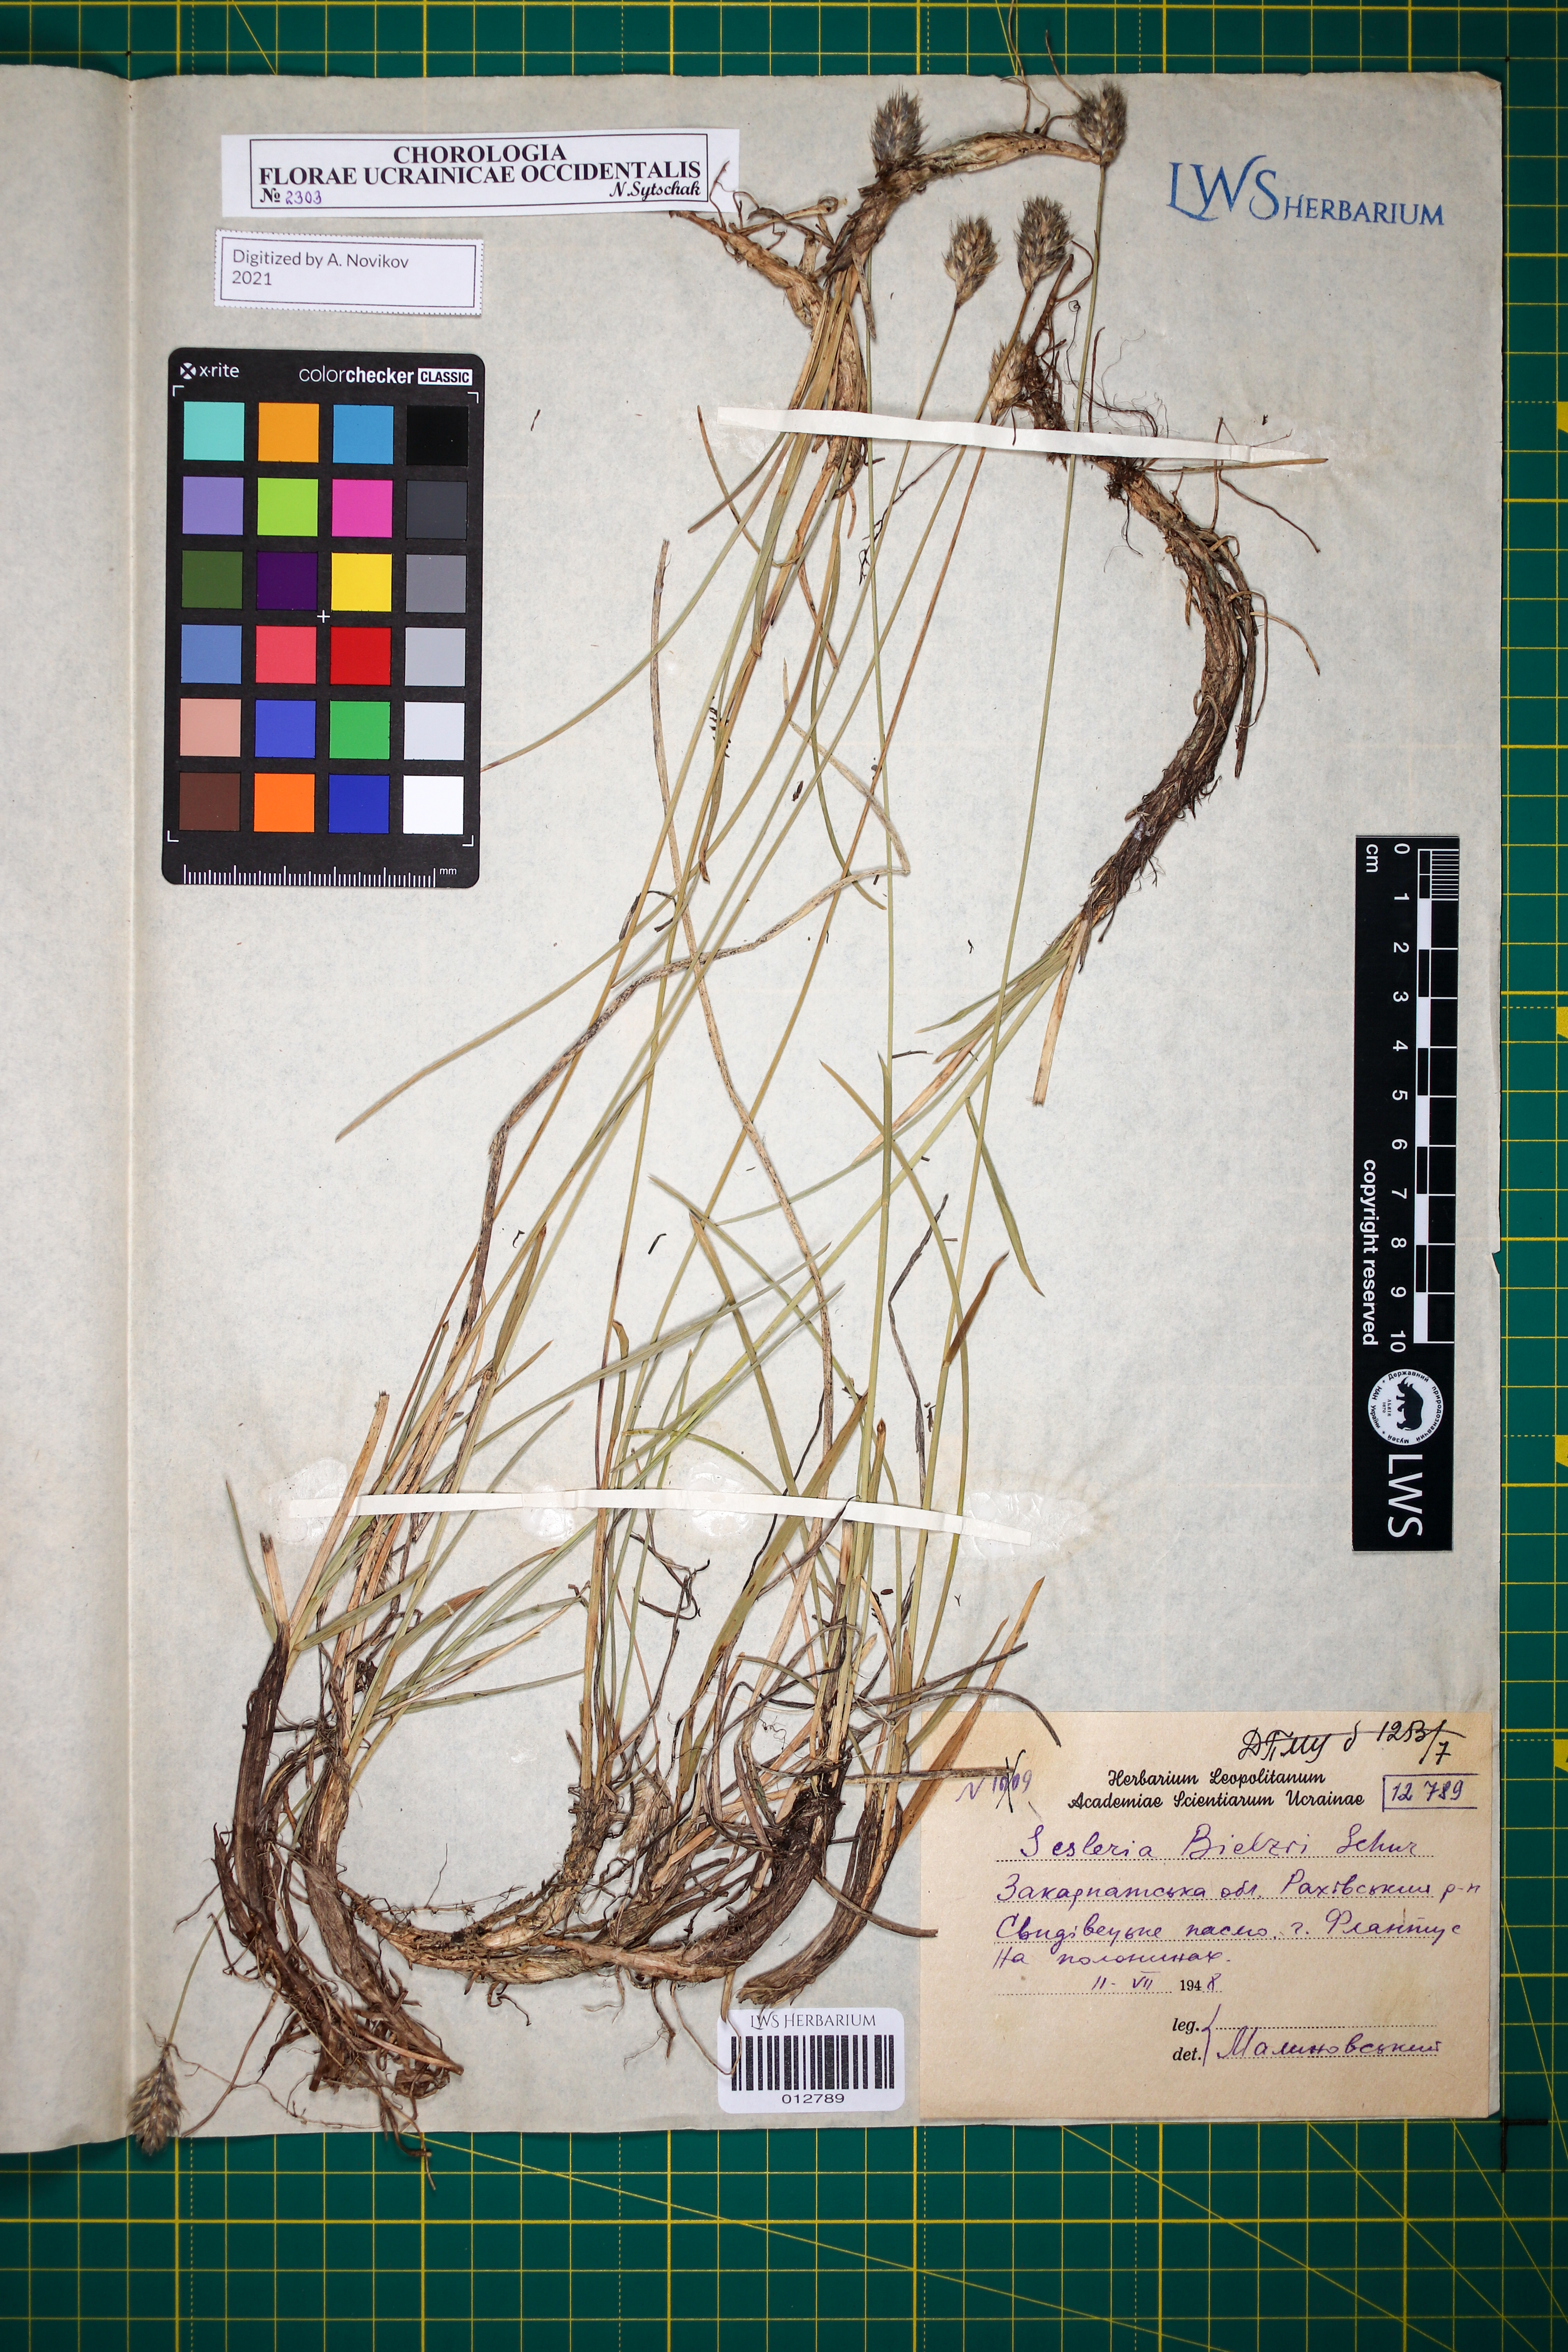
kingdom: Plantae
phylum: Tracheophyta
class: Liliopsida
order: Poales
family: Poaceae
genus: Sesleria
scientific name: Sesleria bielzii
